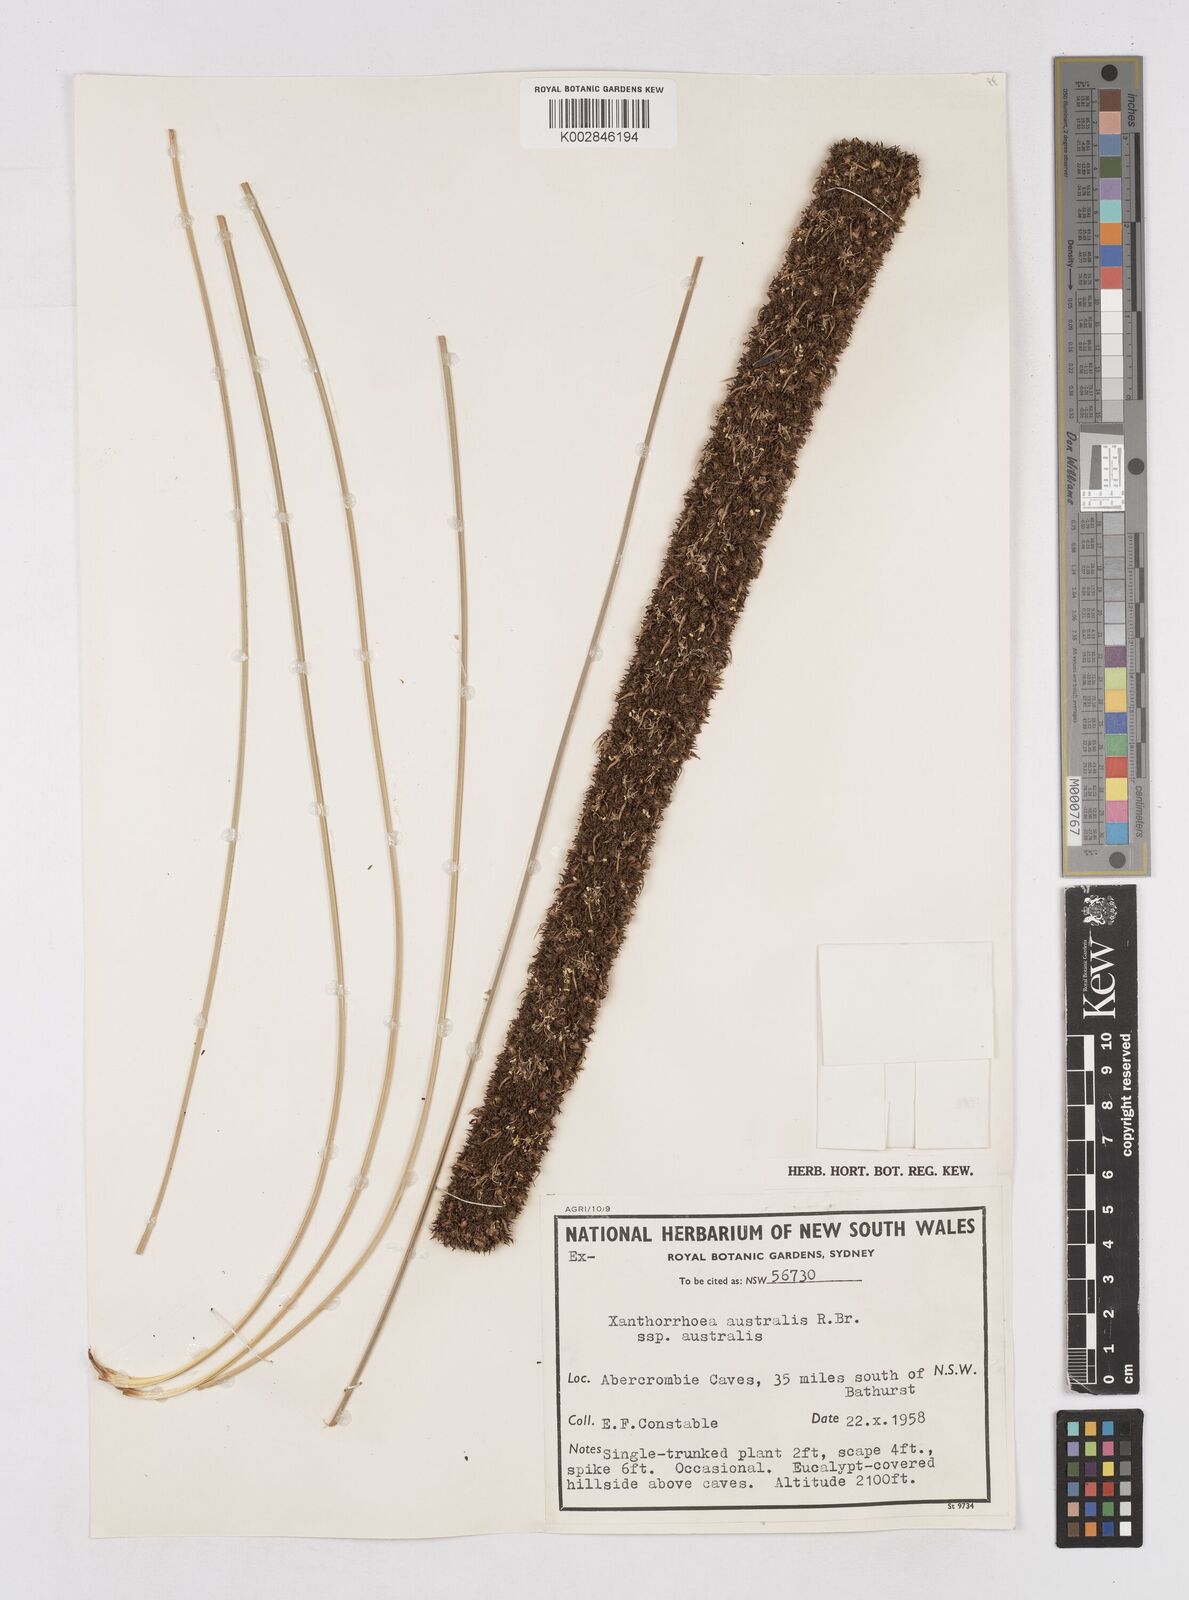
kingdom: Plantae
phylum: Tracheophyta
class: Liliopsida
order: Asparagales
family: Asphodelaceae
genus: Xanthorrhoea
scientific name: Xanthorrhoea australis
